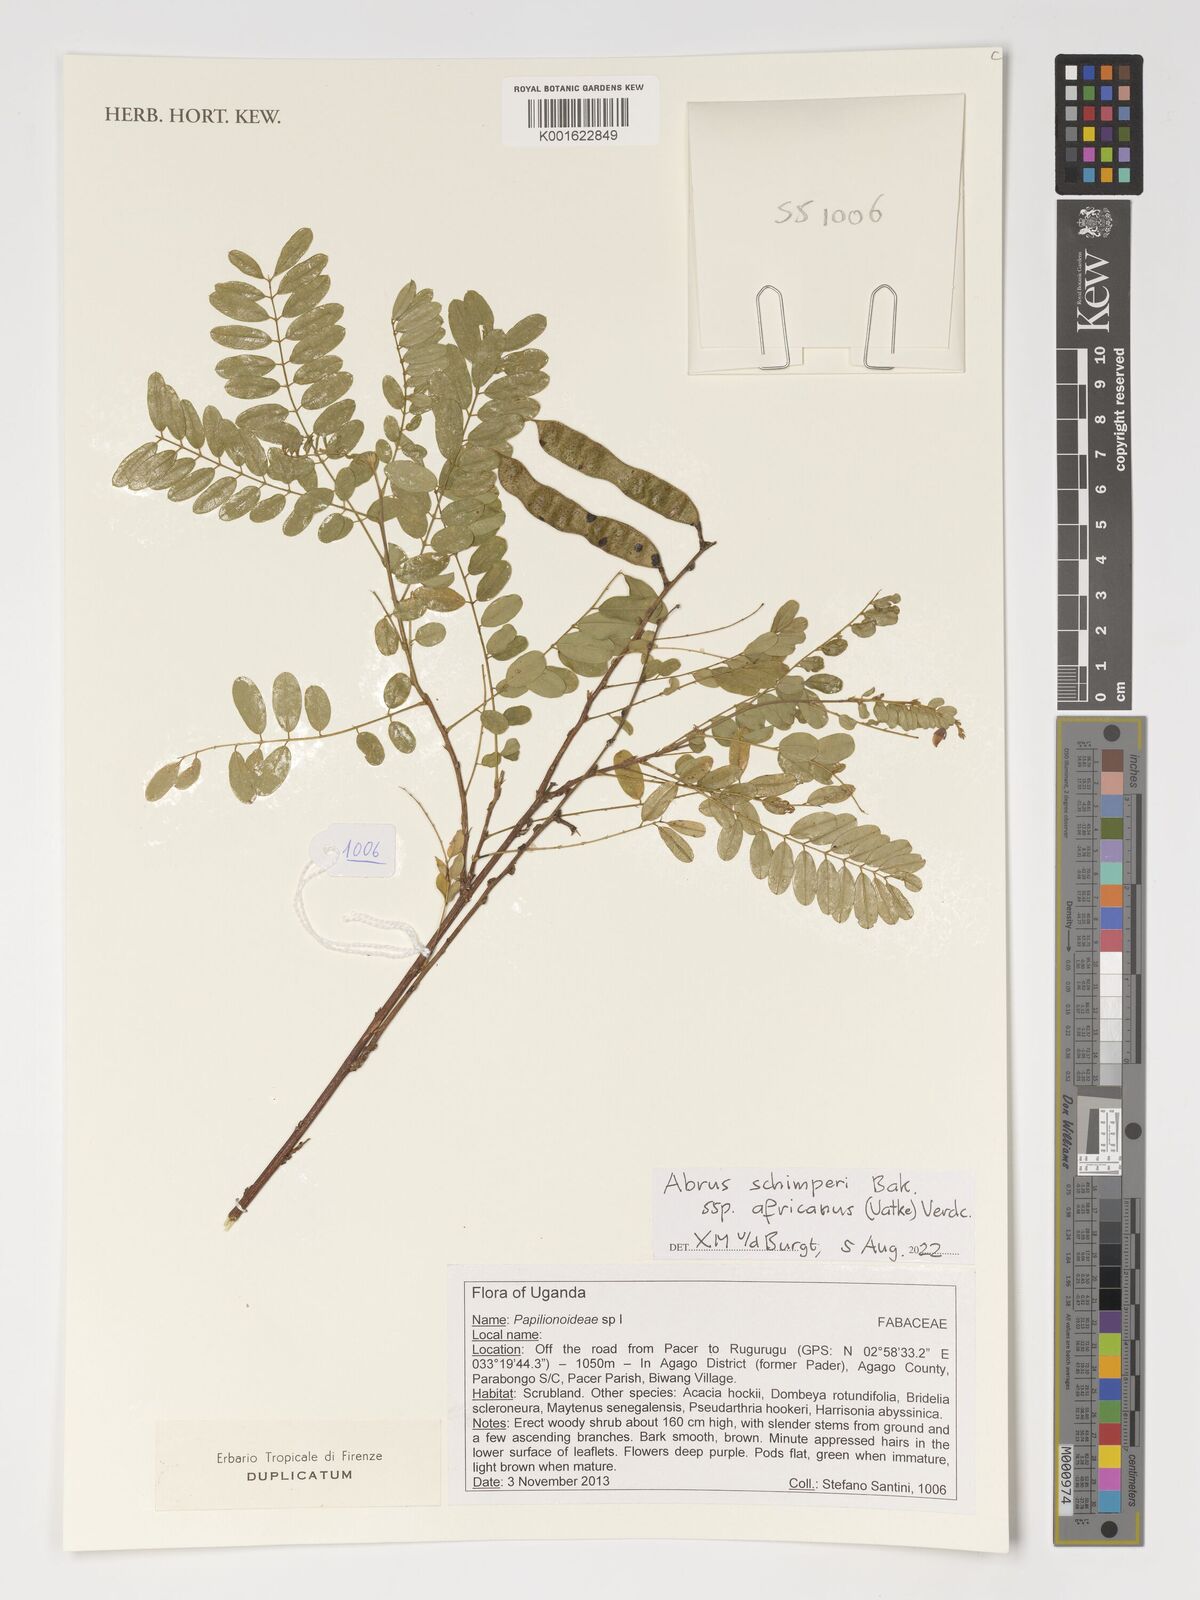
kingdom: Plantae
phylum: Tracheophyta
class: Magnoliopsida
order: Fabales
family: Fabaceae
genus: Abrus
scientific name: Abrus fruticulosus
